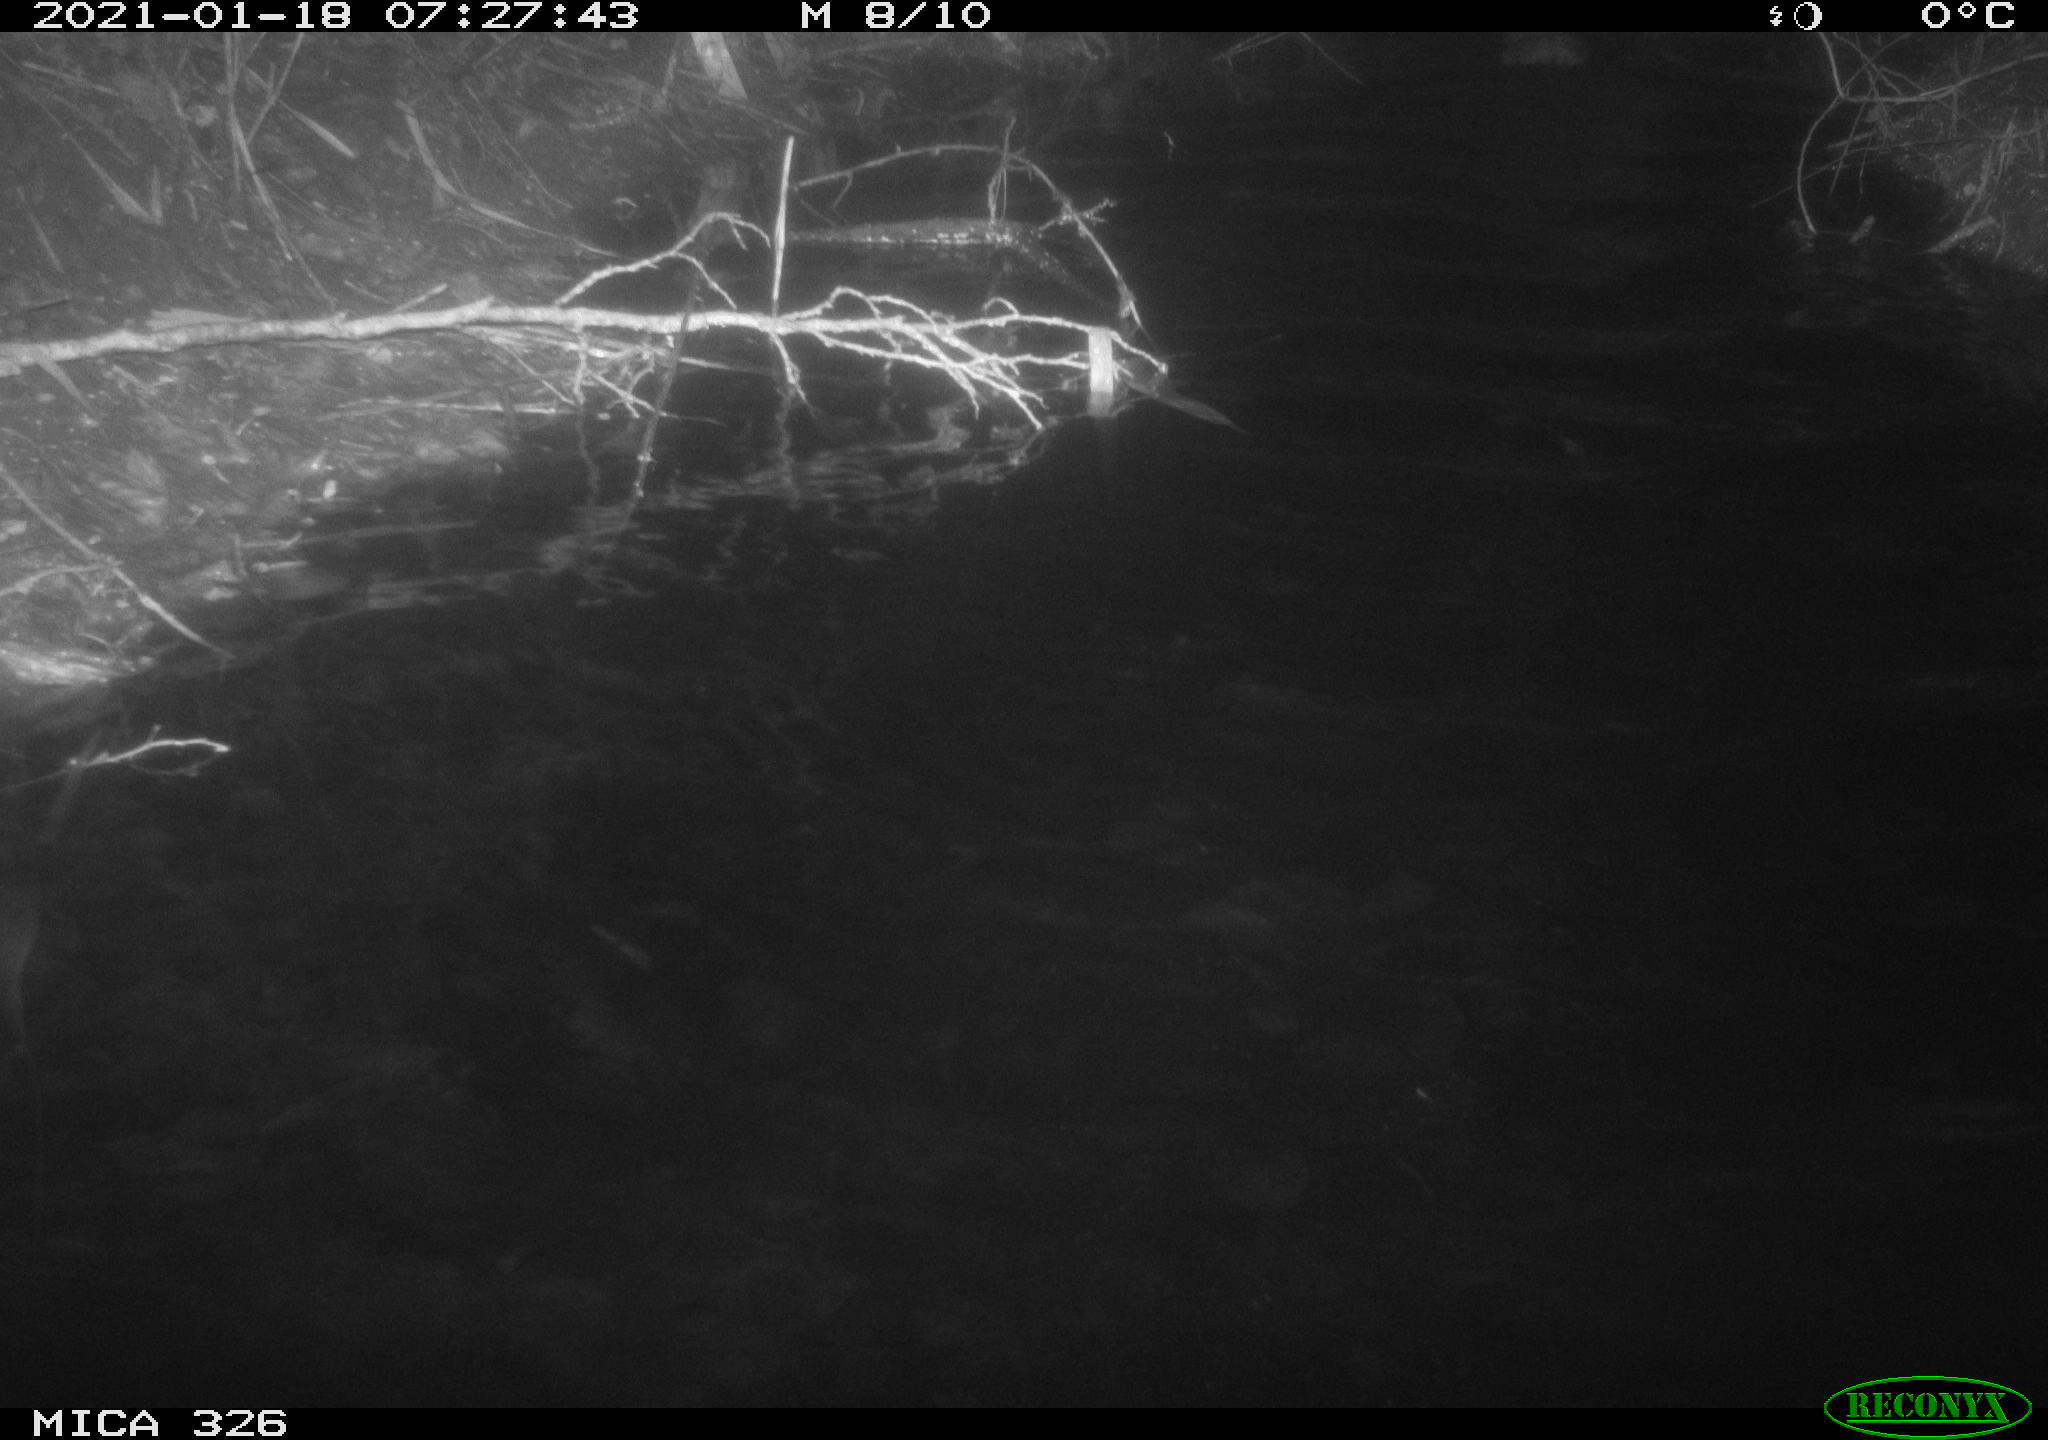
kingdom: Animalia
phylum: Chordata
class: Mammalia
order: Rodentia
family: Cricetidae
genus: Ondatra
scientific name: Ondatra zibethicus
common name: Muskrat
